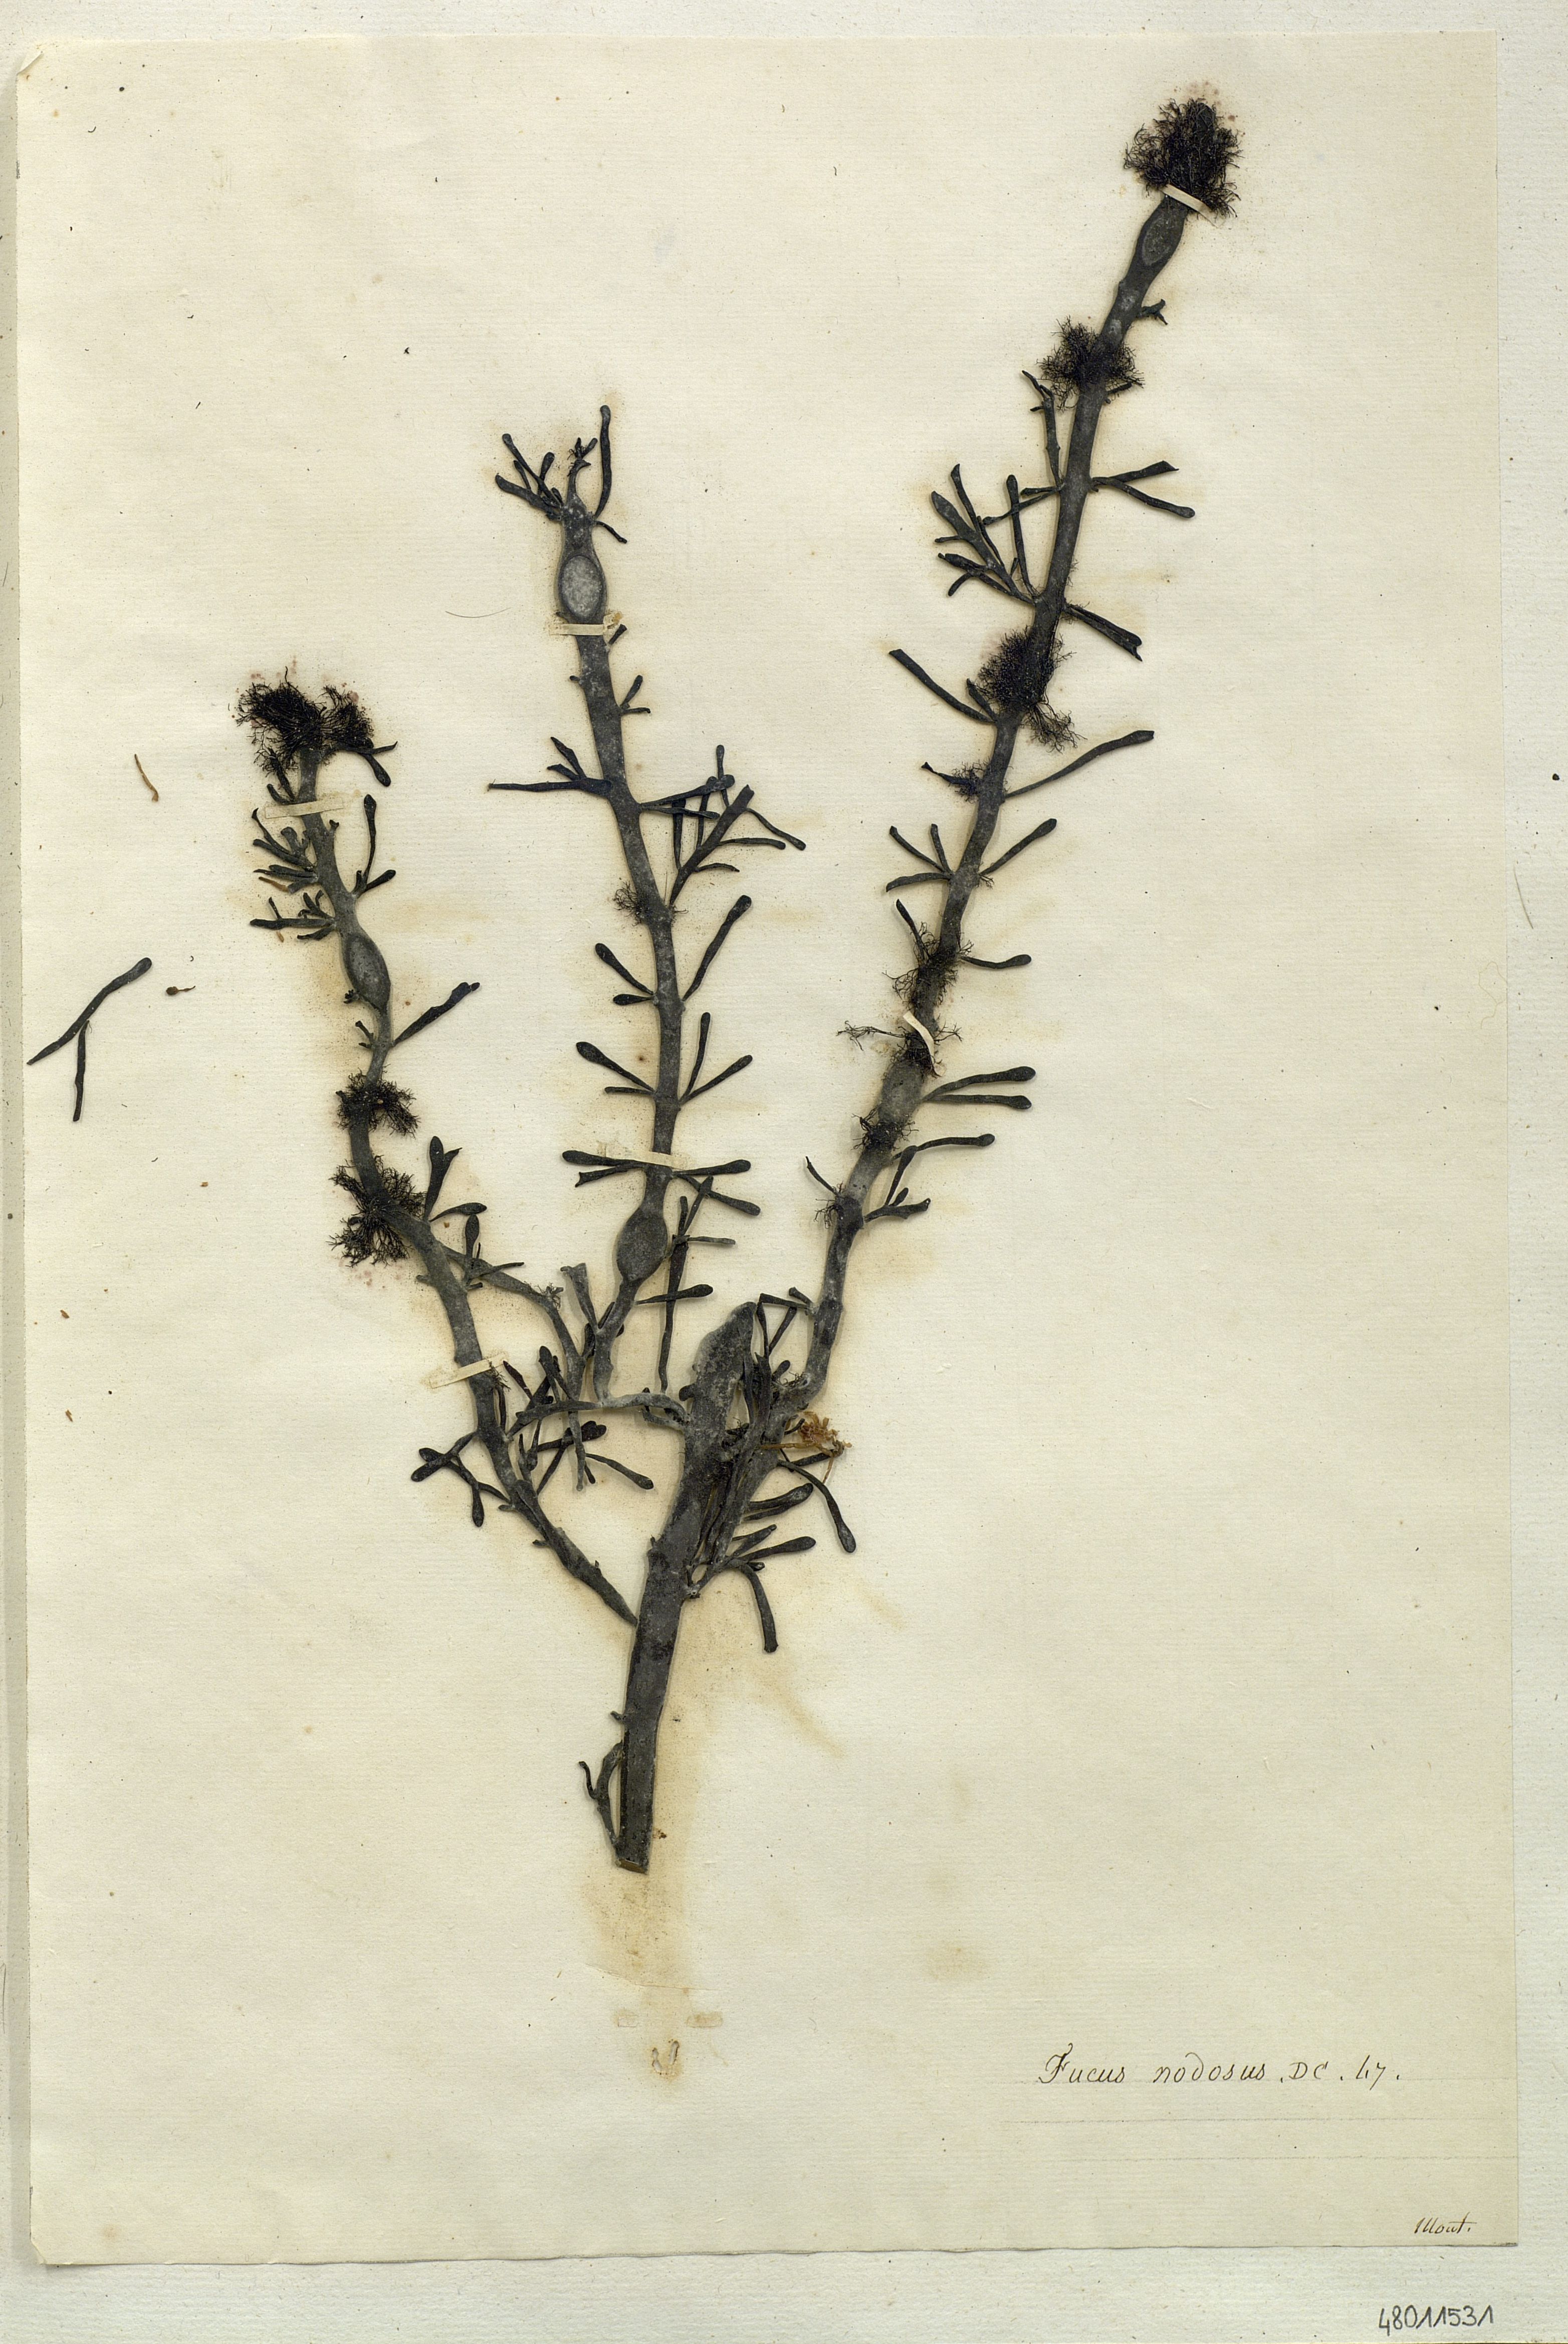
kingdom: Chromista
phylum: Ochrophyta
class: Phaeophyceae
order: Fucales
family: Fucaceae
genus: Ascophyllum
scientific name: Ascophyllum nodosum
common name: Knotted wrack
